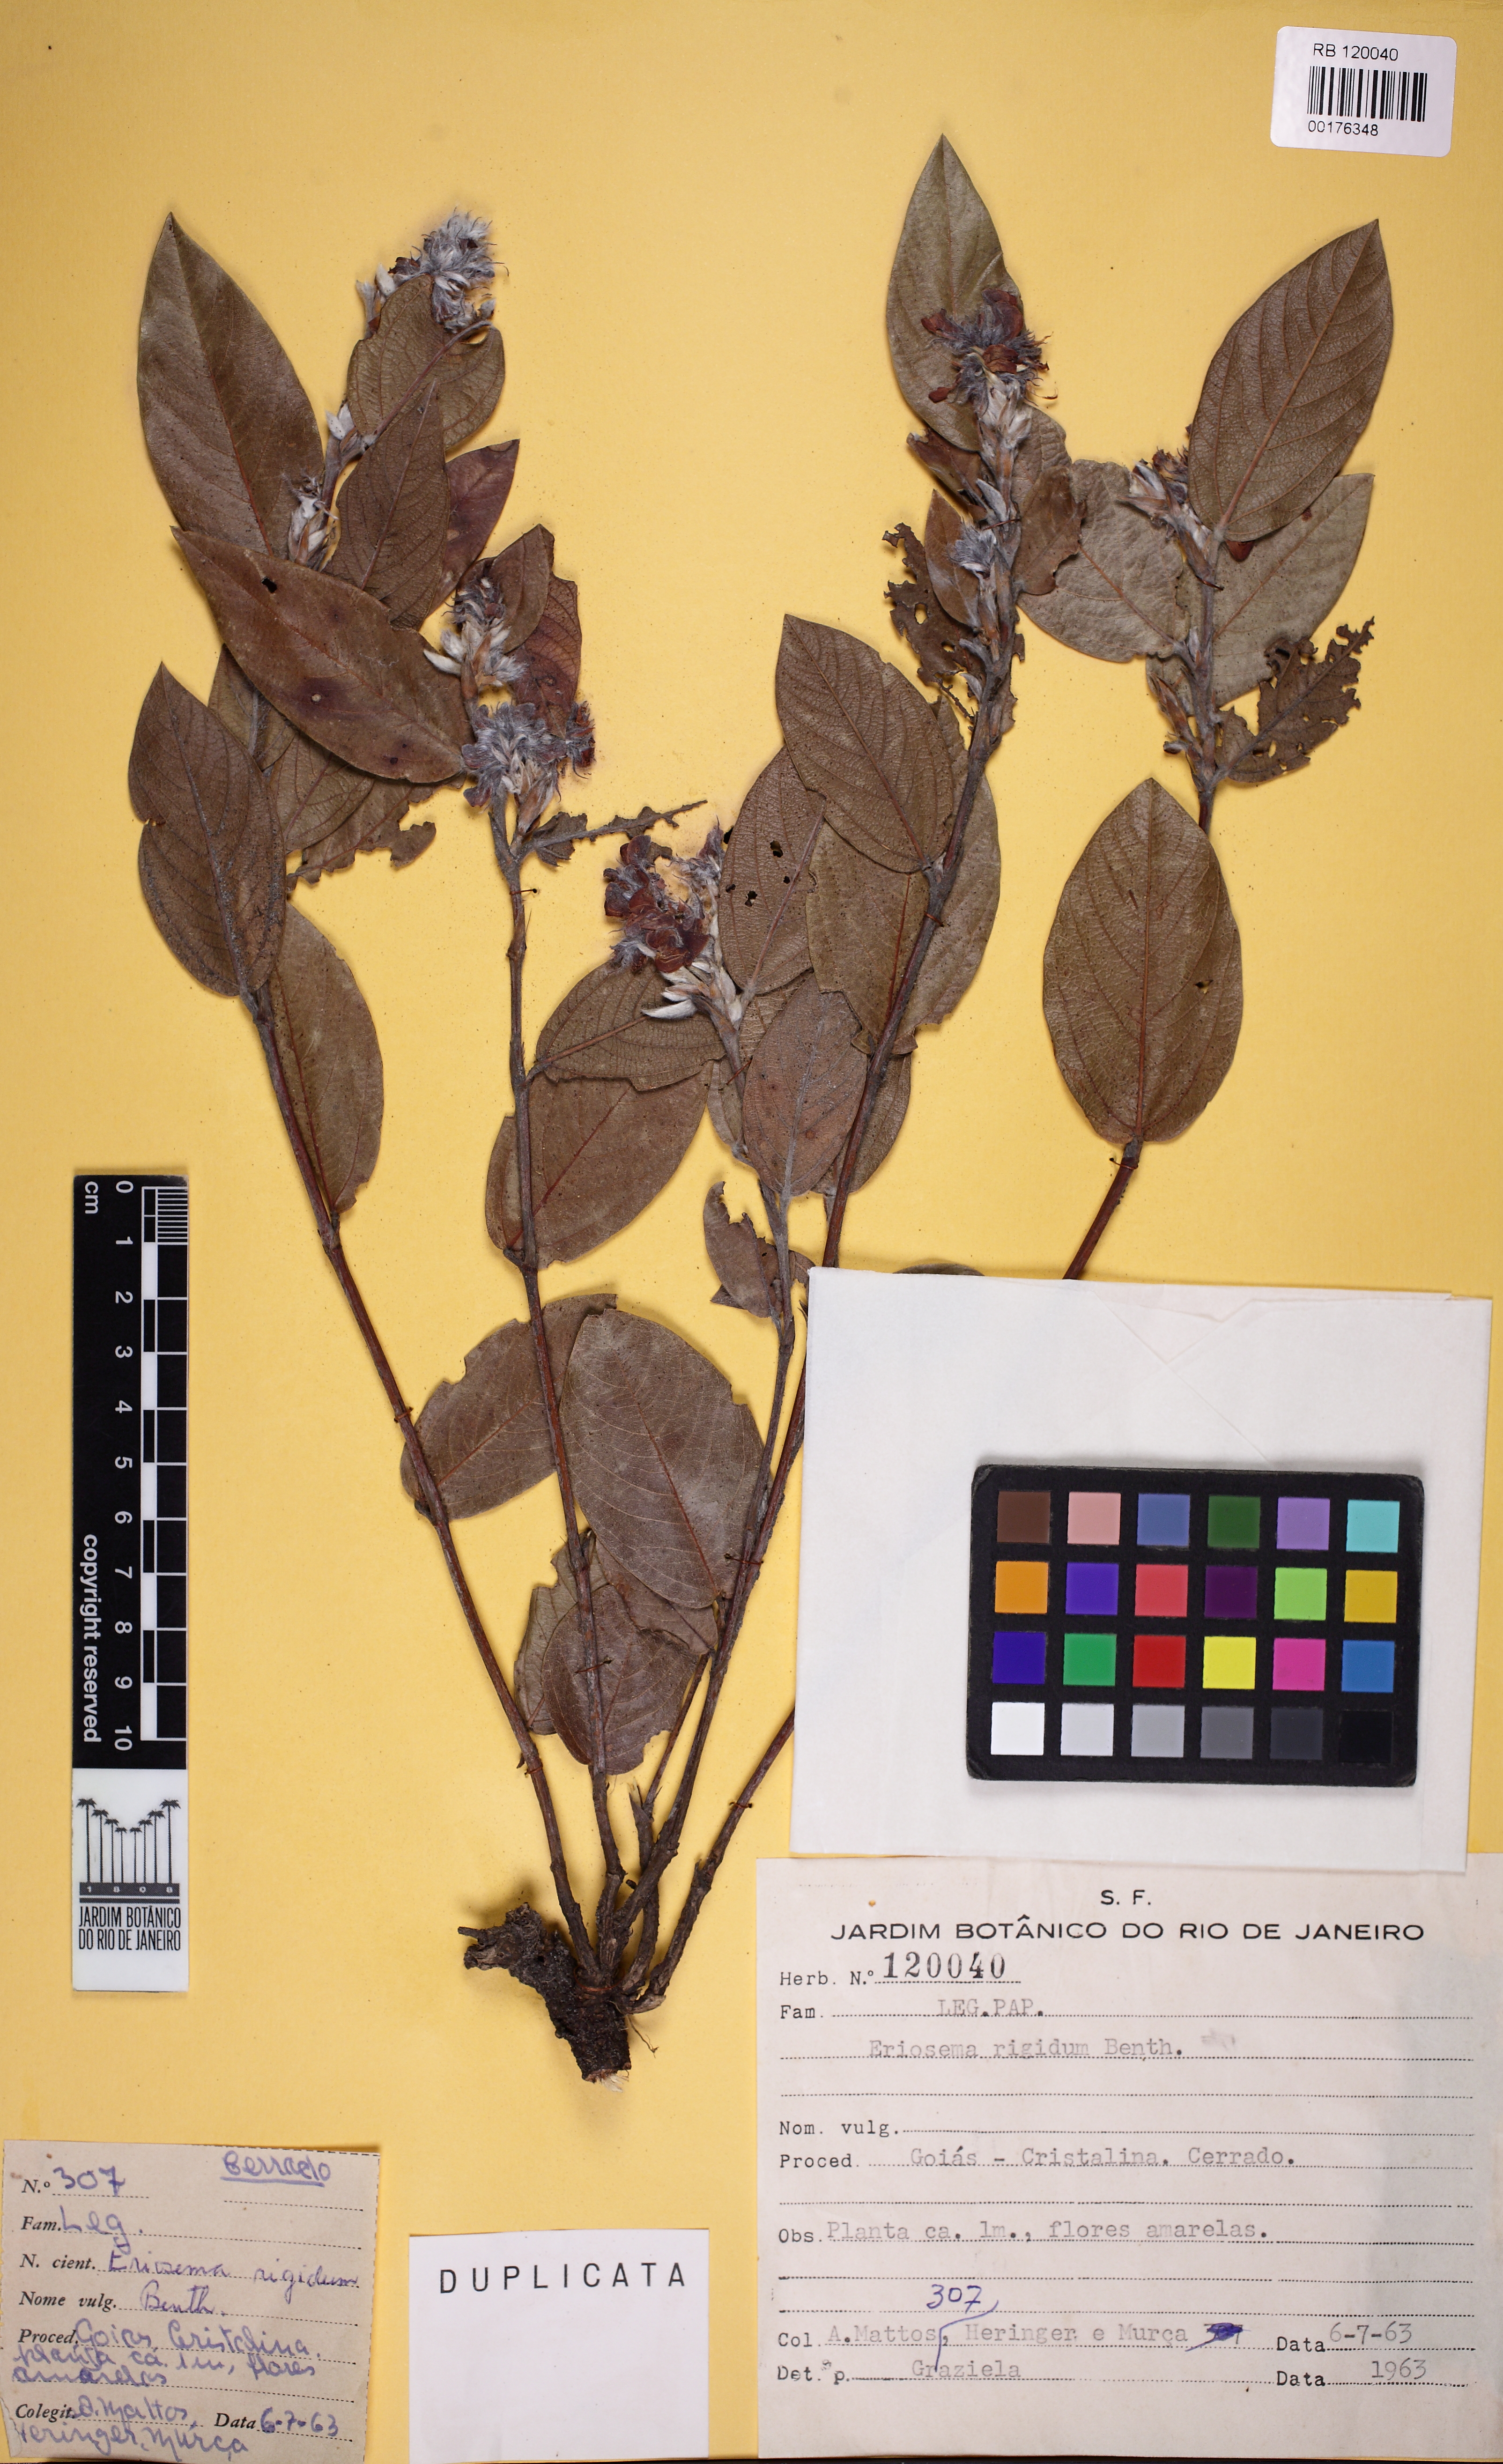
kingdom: Plantae
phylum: Tracheophyta
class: Magnoliopsida
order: Fabales
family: Fabaceae
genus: Eriosema
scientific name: Eriosema rigidum
